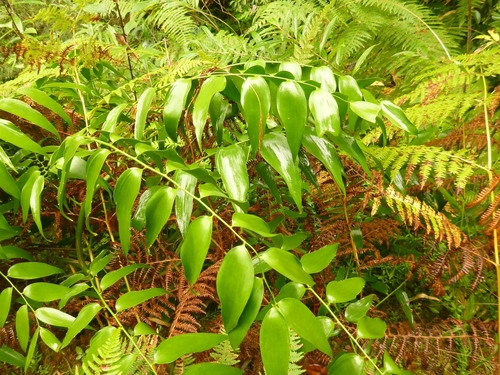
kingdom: Plantae
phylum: Tracheophyta
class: Liliopsida
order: Asparagales
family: Asparagaceae
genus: Semele
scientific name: Semele androgyna
